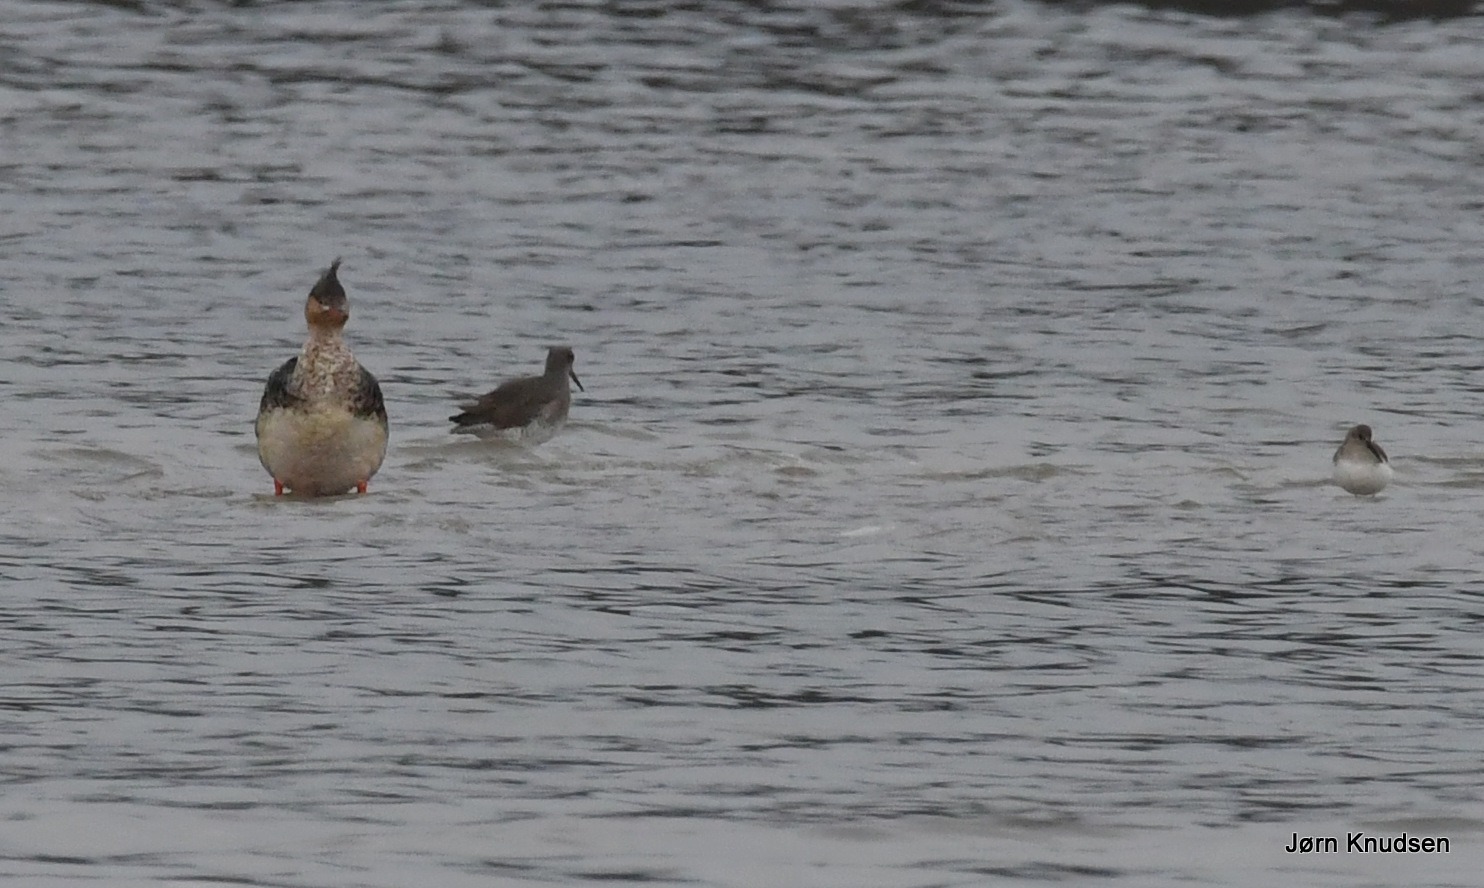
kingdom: Animalia
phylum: Chordata
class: Aves
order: Anseriformes
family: Anatidae
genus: Mergus
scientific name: Mergus serrator
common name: Toppet skallesluger
